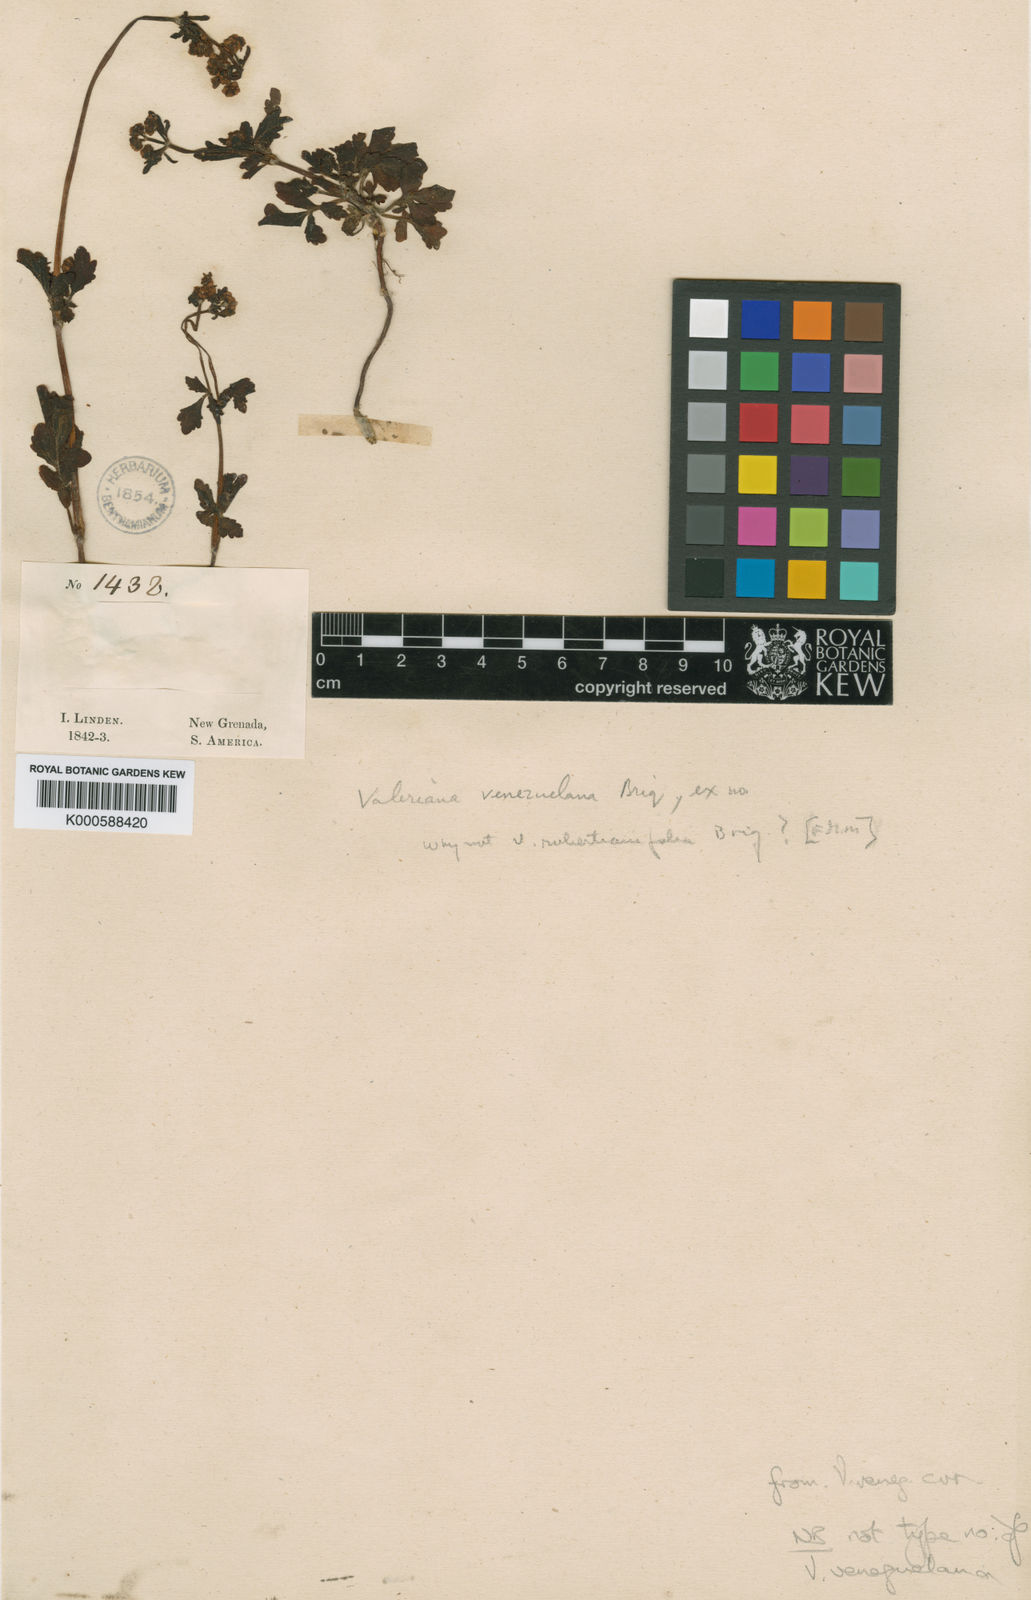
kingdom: Plantae
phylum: Tracheophyta
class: Magnoliopsida
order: Dipsacales
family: Caprifoliaceae
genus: Valeriana
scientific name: Valeriana robertianifolia
